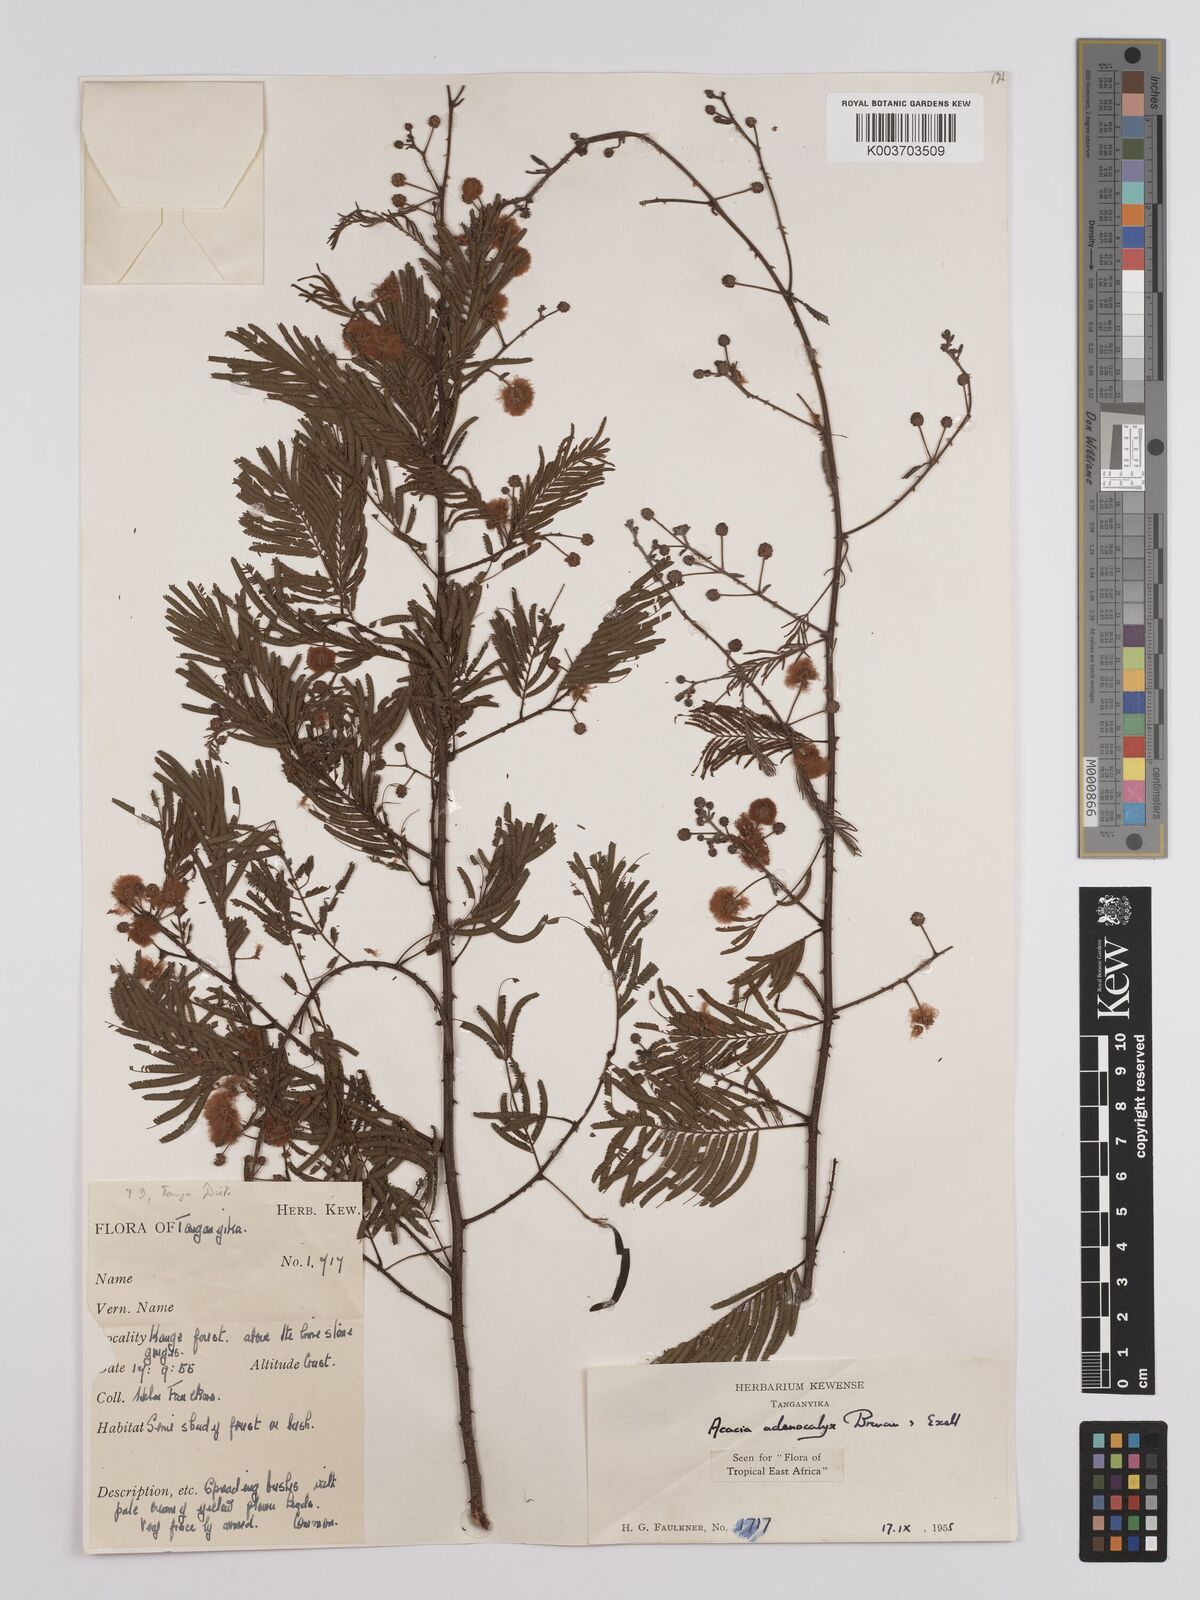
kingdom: Plantae
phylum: Tracheophyta
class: Magnoliopsida
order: Fabales
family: Fabaceae
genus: Senegalia
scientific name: Senegalia adenocalyx
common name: Pfurura
